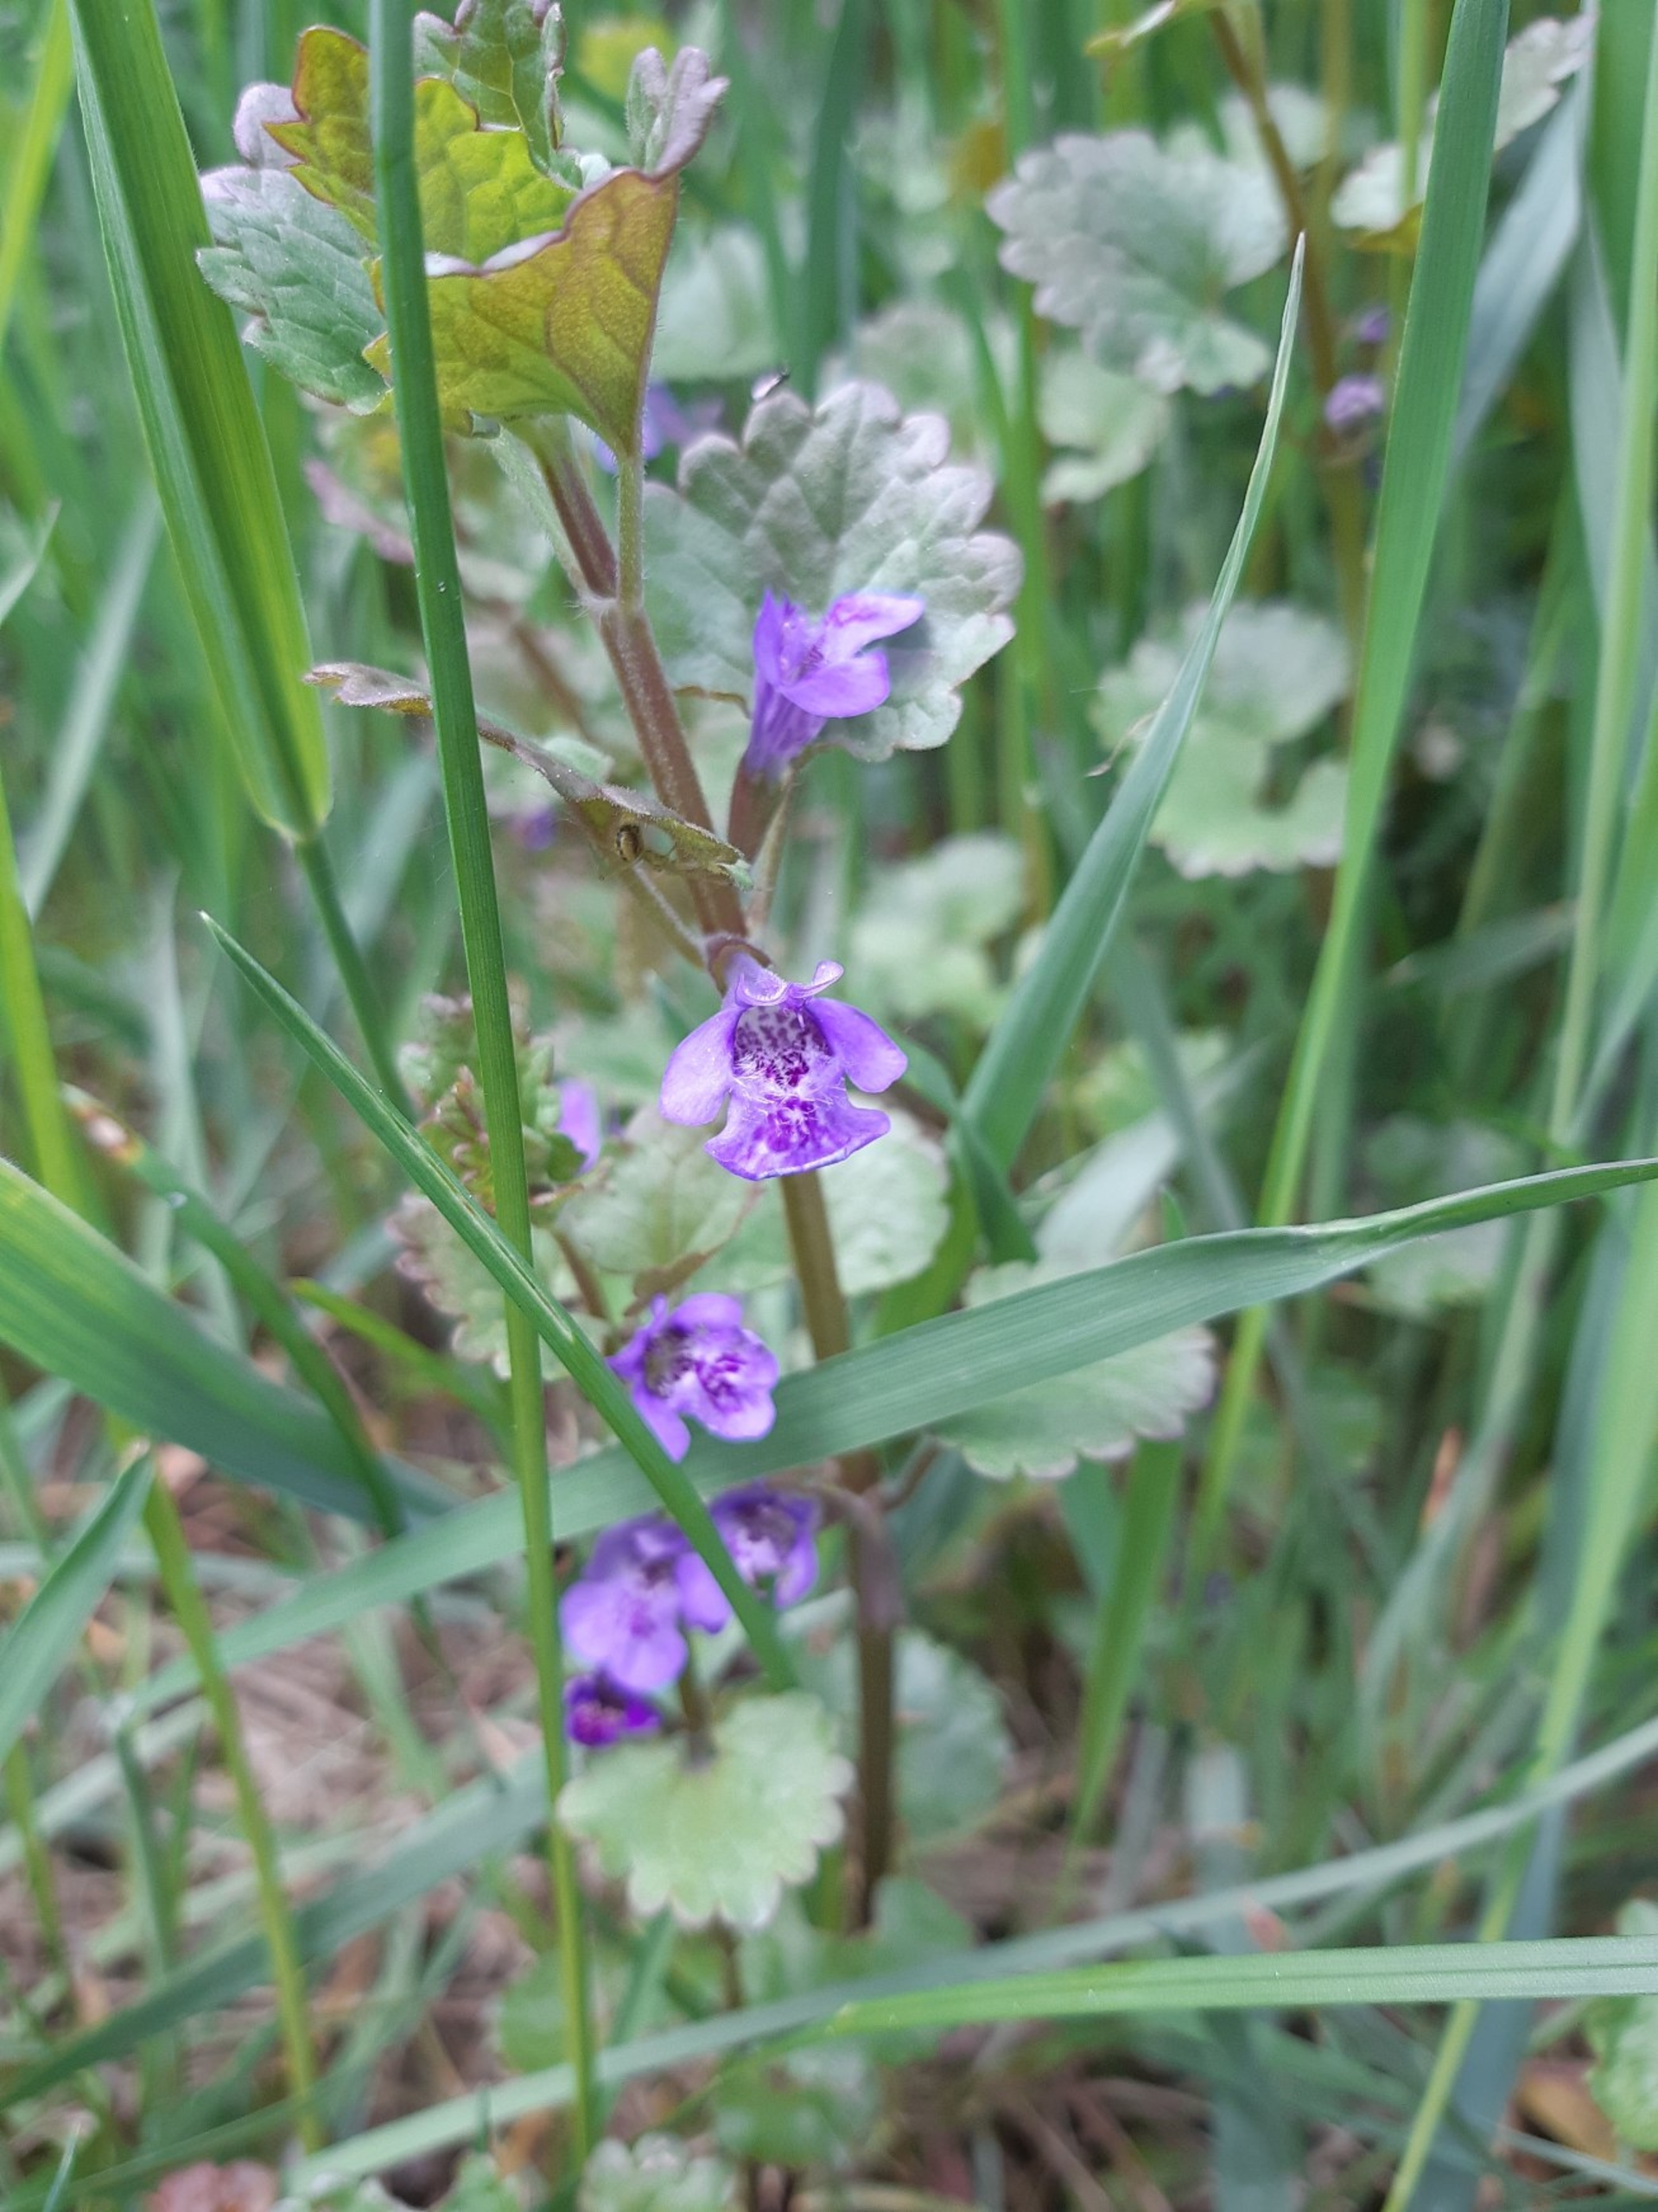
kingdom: Plantae
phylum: Tracheophyta
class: Magnoliopsida
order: Lamiales
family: Lamiaceae
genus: Glechoma
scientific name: Glechoma hederacea
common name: Korsknap
